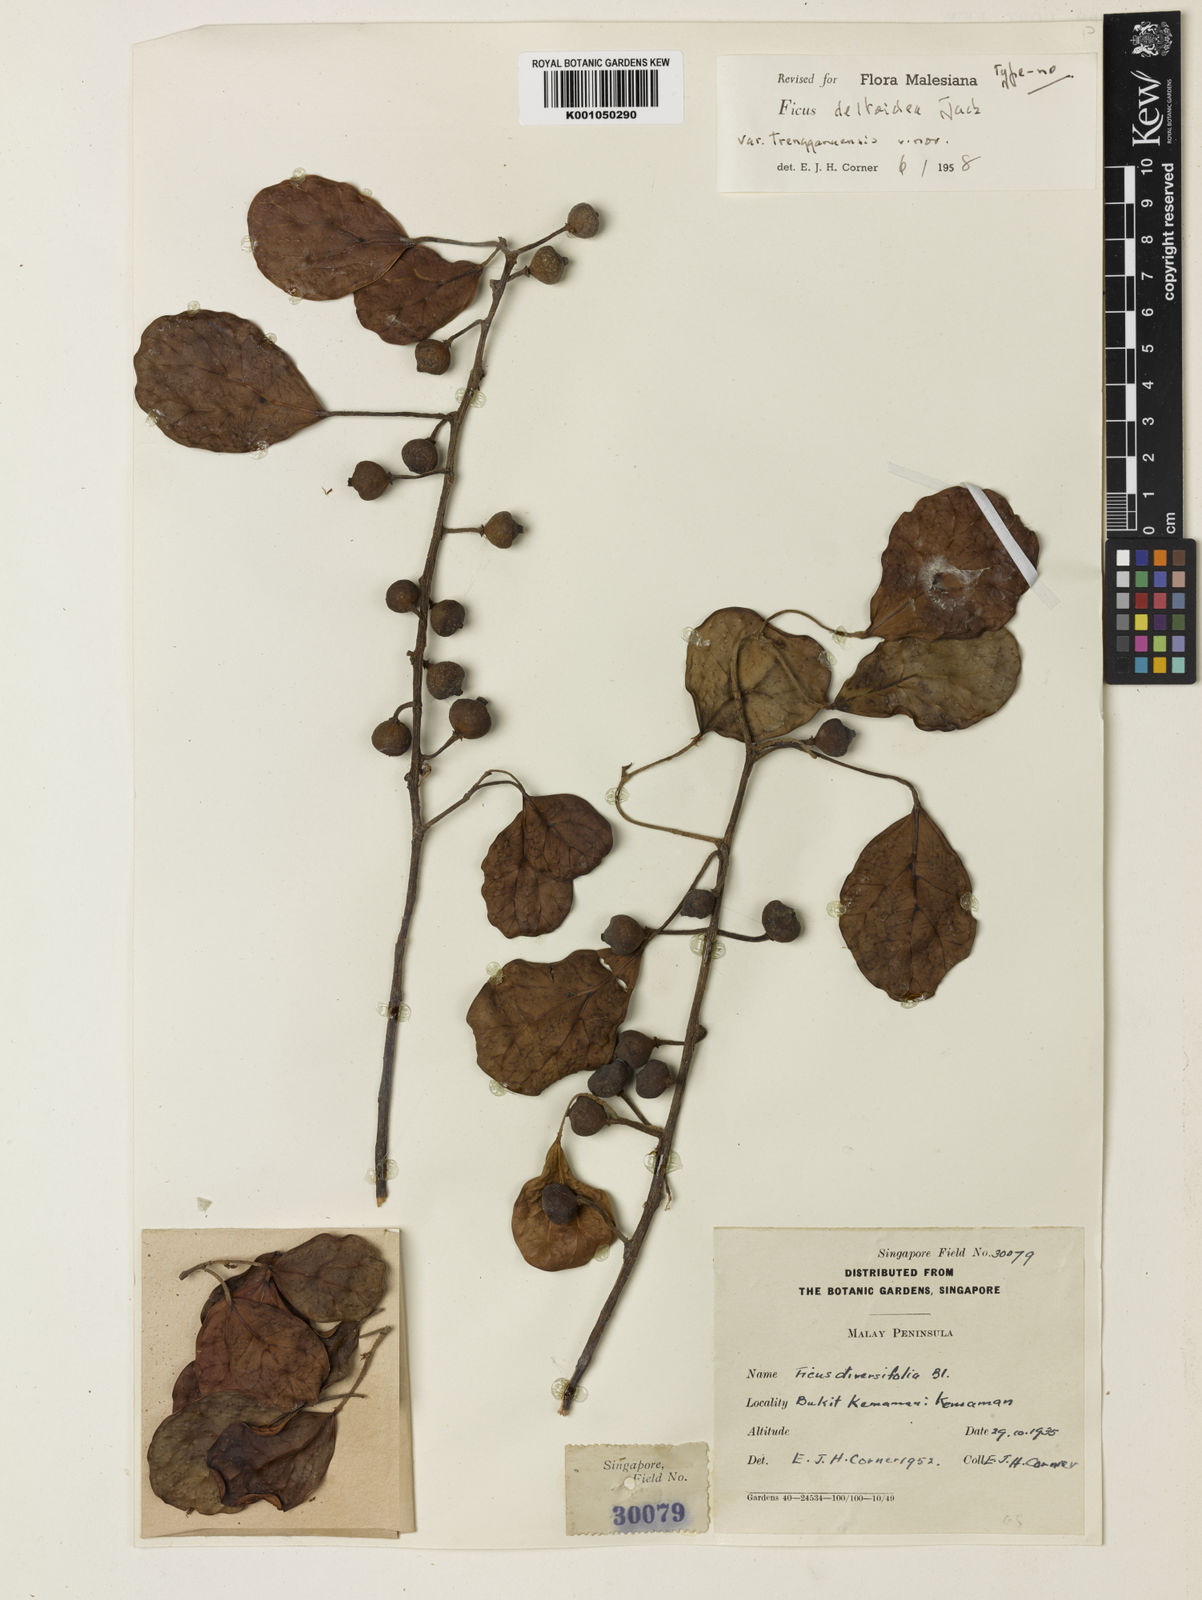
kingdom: Plantae
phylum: Tracheophyta
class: Magnoliopsida
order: Rosales
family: Moraceae
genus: Ficus
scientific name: Ficus deltoidea
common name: Mistletoe fig
